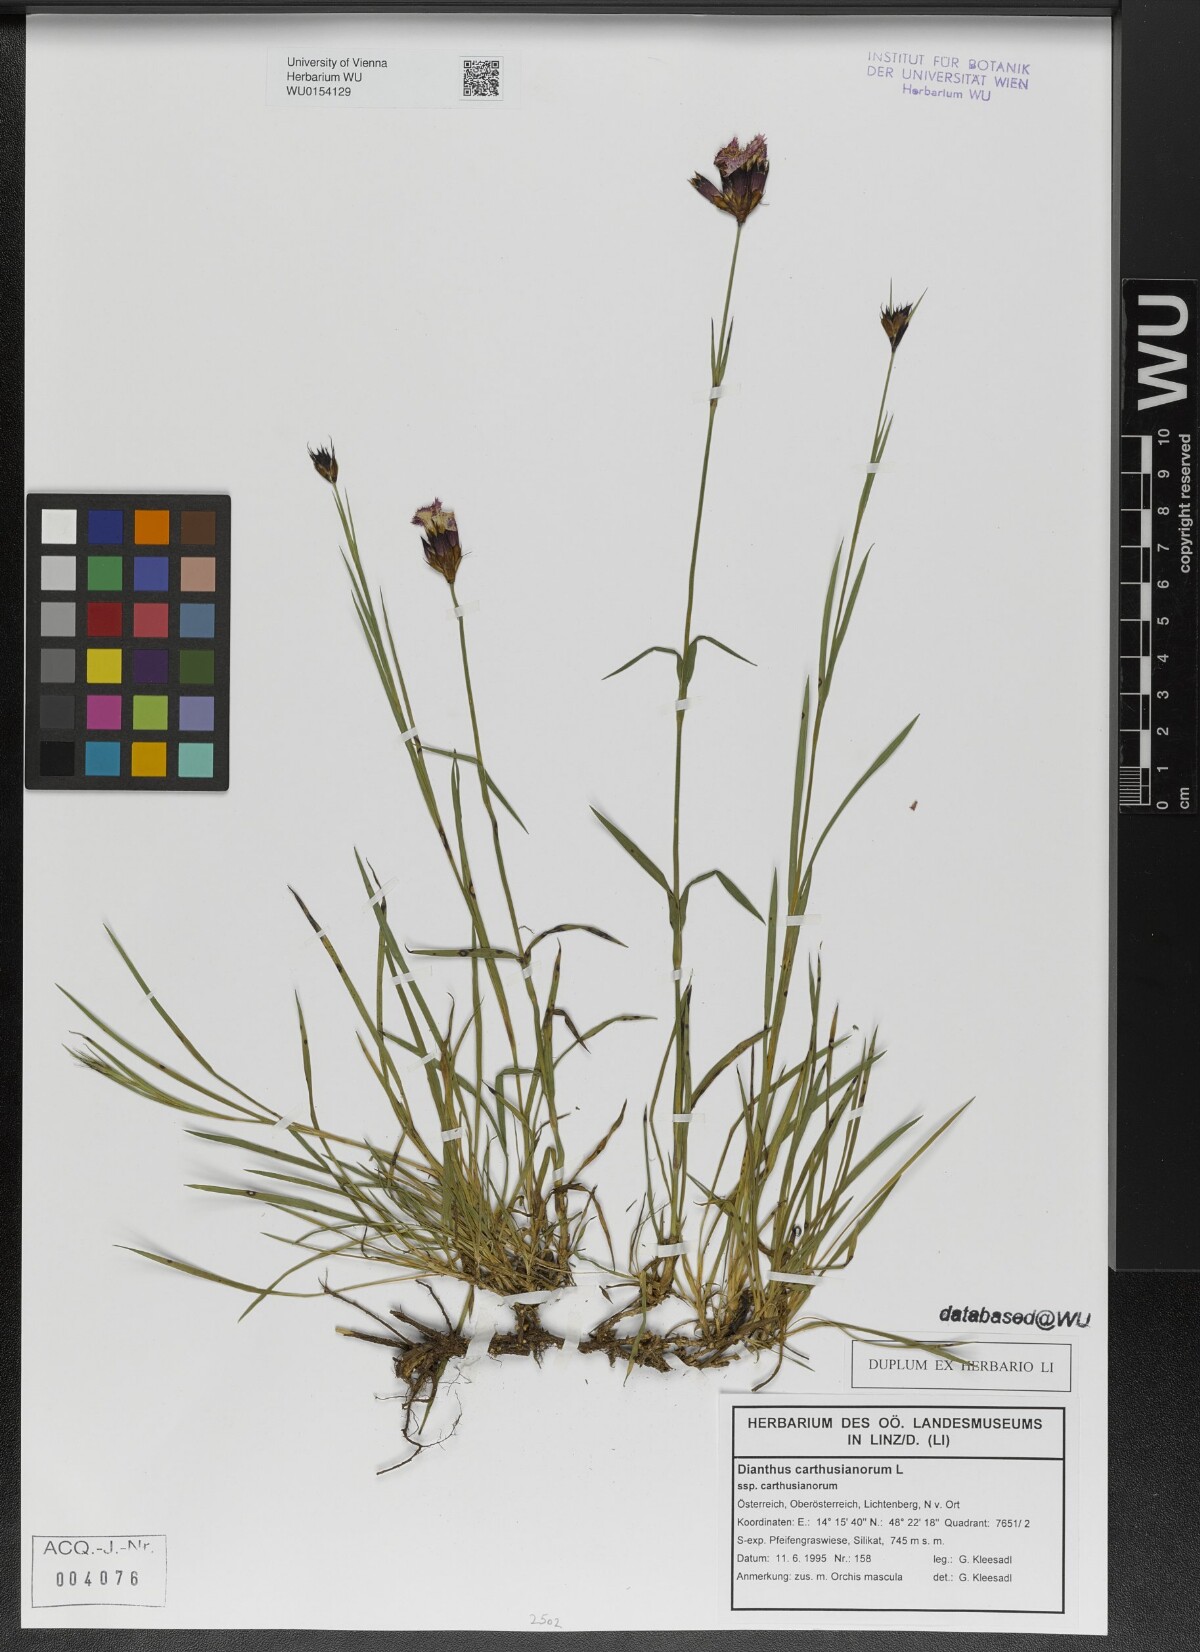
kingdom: Plantae
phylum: Tracheophyta
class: Magnoliopsida
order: Caryophyllales
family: Caryophyllaceae
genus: Dianthus
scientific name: Dianthus carthusianorum
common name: Carthusian pink
